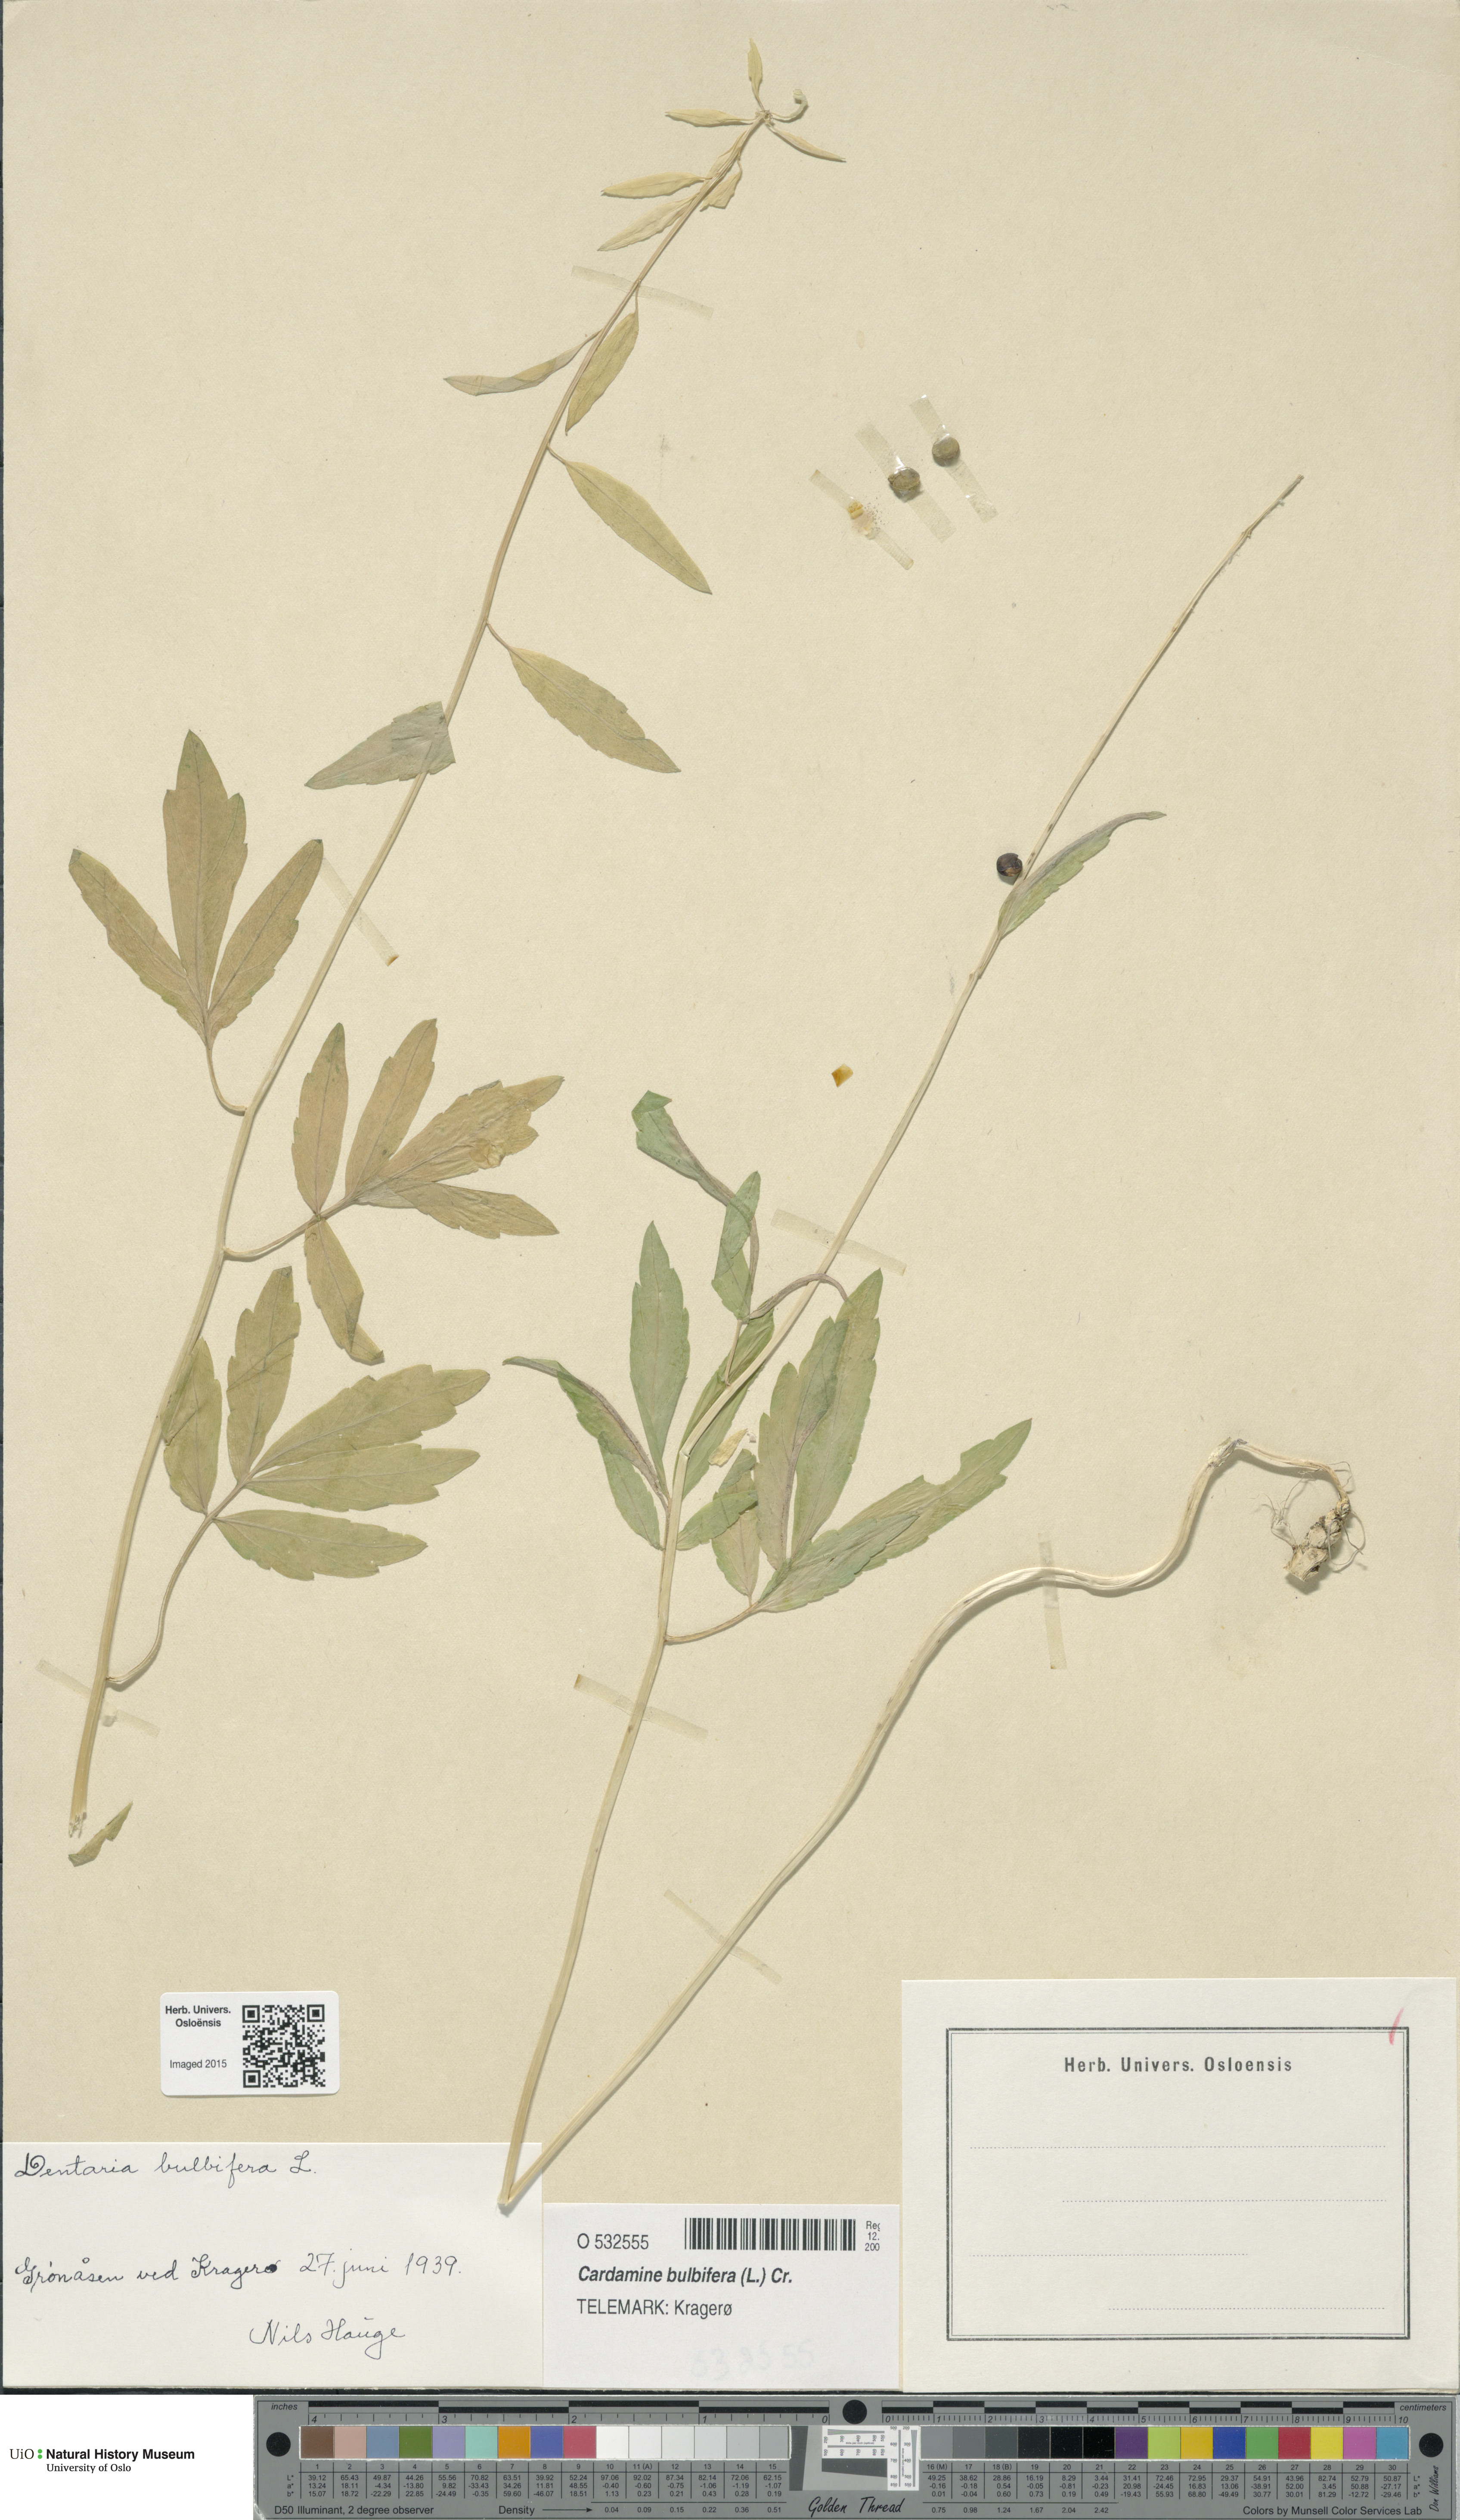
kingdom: Plantae
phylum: Tracheophyta
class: Magnoliopsida
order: Brassicales
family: Brassicaceae
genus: Cardamine
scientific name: Cardamine bulbifera
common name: Coralroot bittercress
